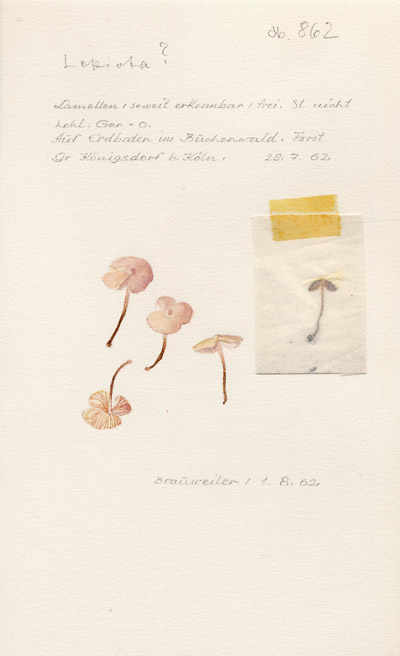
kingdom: Fungi
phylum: Basidiomycota
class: Agaricomycetes
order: Agaricales
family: Agaricaceae
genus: Lepiota
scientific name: Lepiota
